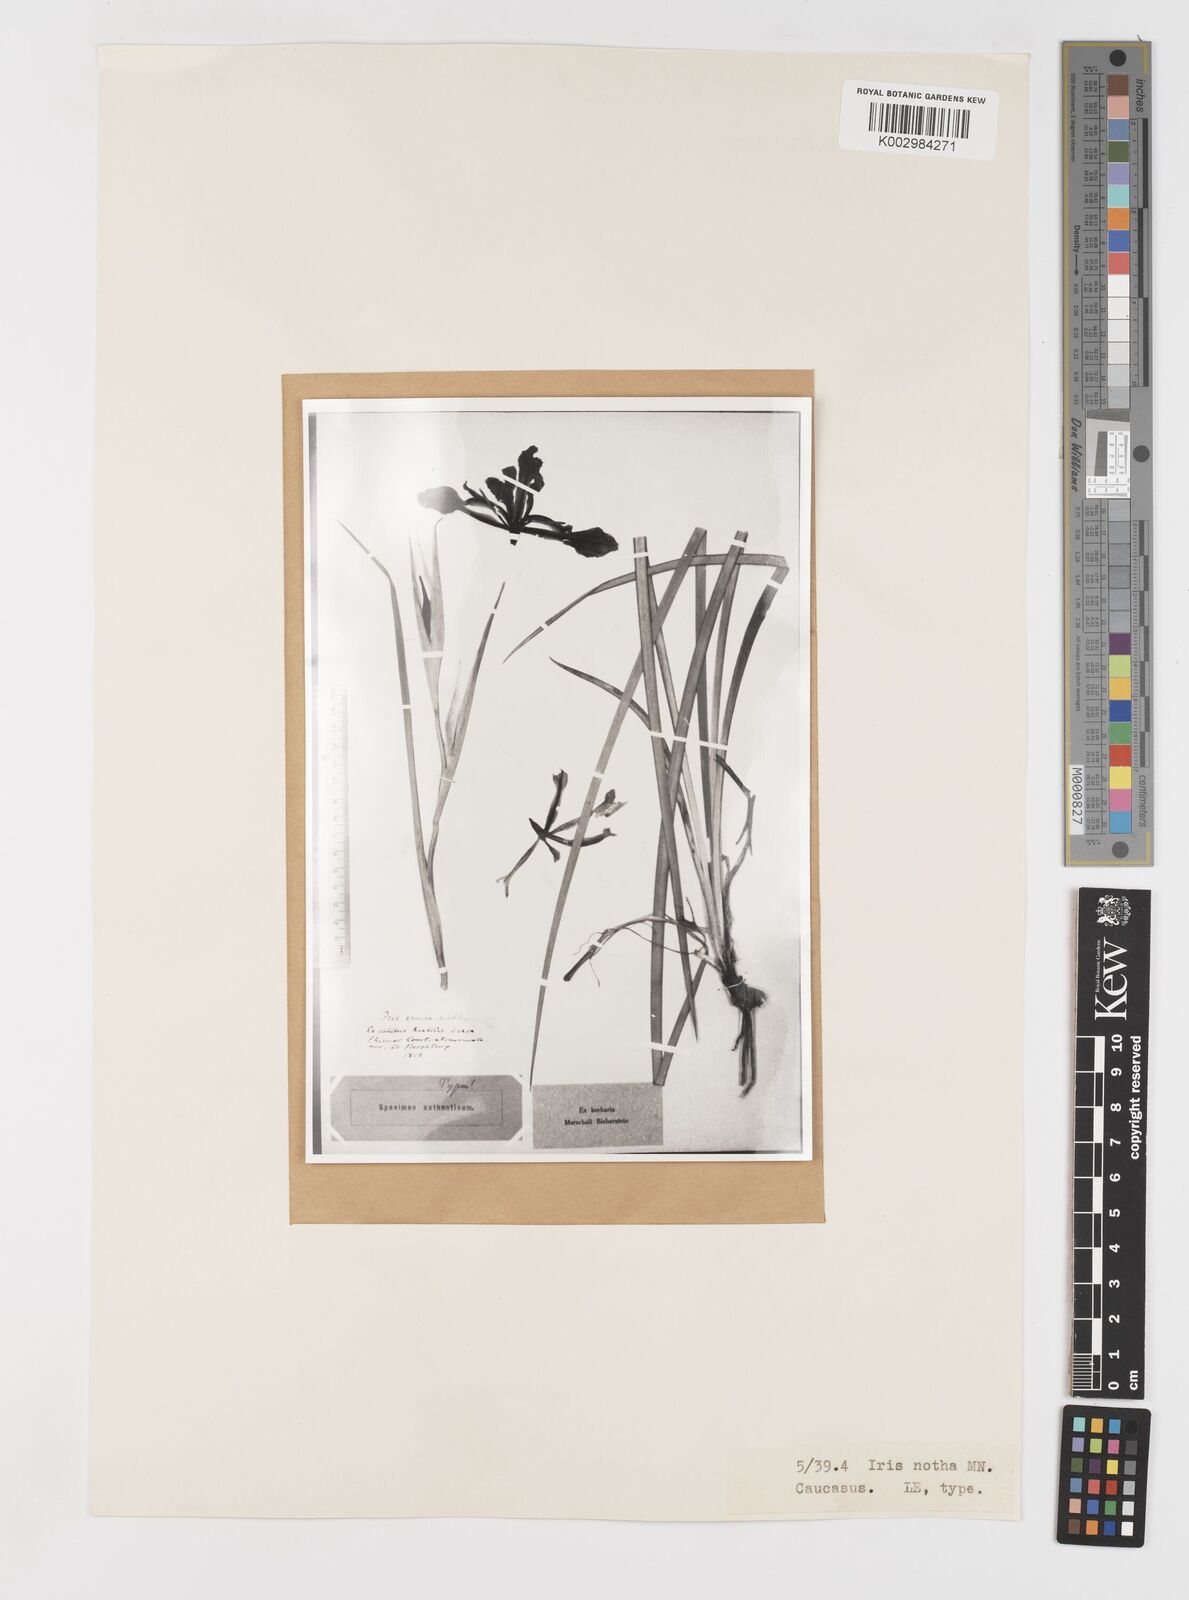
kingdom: Plantae
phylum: Tracheophyta
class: Liliopsida
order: Asparagales
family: Iridaceae
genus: Iris
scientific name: Iris spuria
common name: Blue iris
